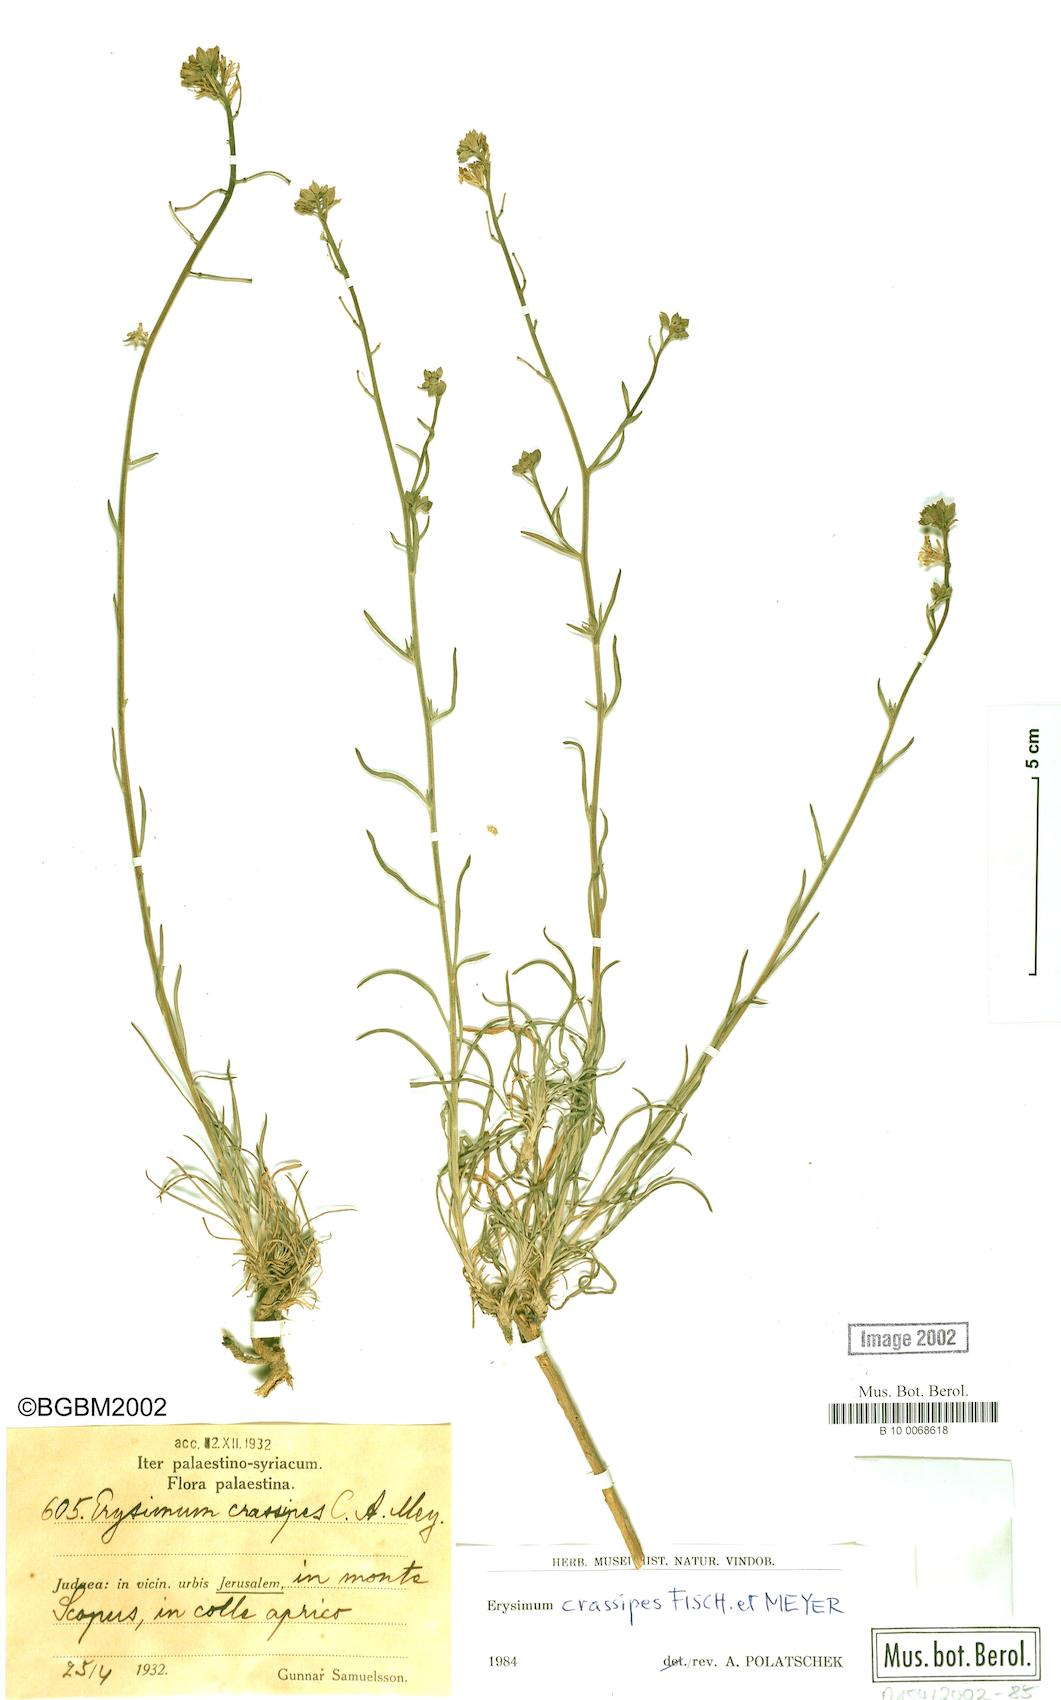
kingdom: Plantae
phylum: Tracheophyta
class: Magnoliopsida
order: Brassicales
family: Brassicaceae
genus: Erysimum
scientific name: Erysimum crassipes
